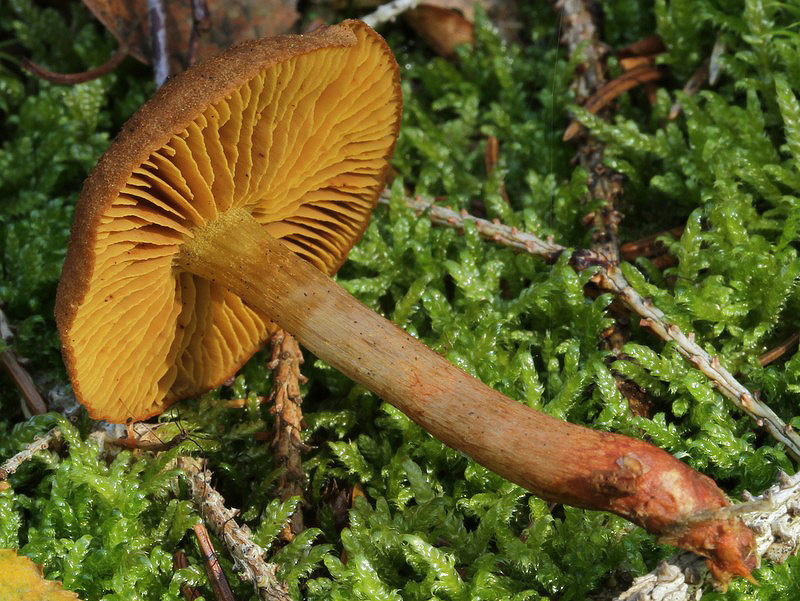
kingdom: Fungi
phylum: Basidiomycota
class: Agaricomycetes
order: Agaricales
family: Cortinariaceae
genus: Cortinarius
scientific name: Cortinarius
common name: gulbladet slørhat
